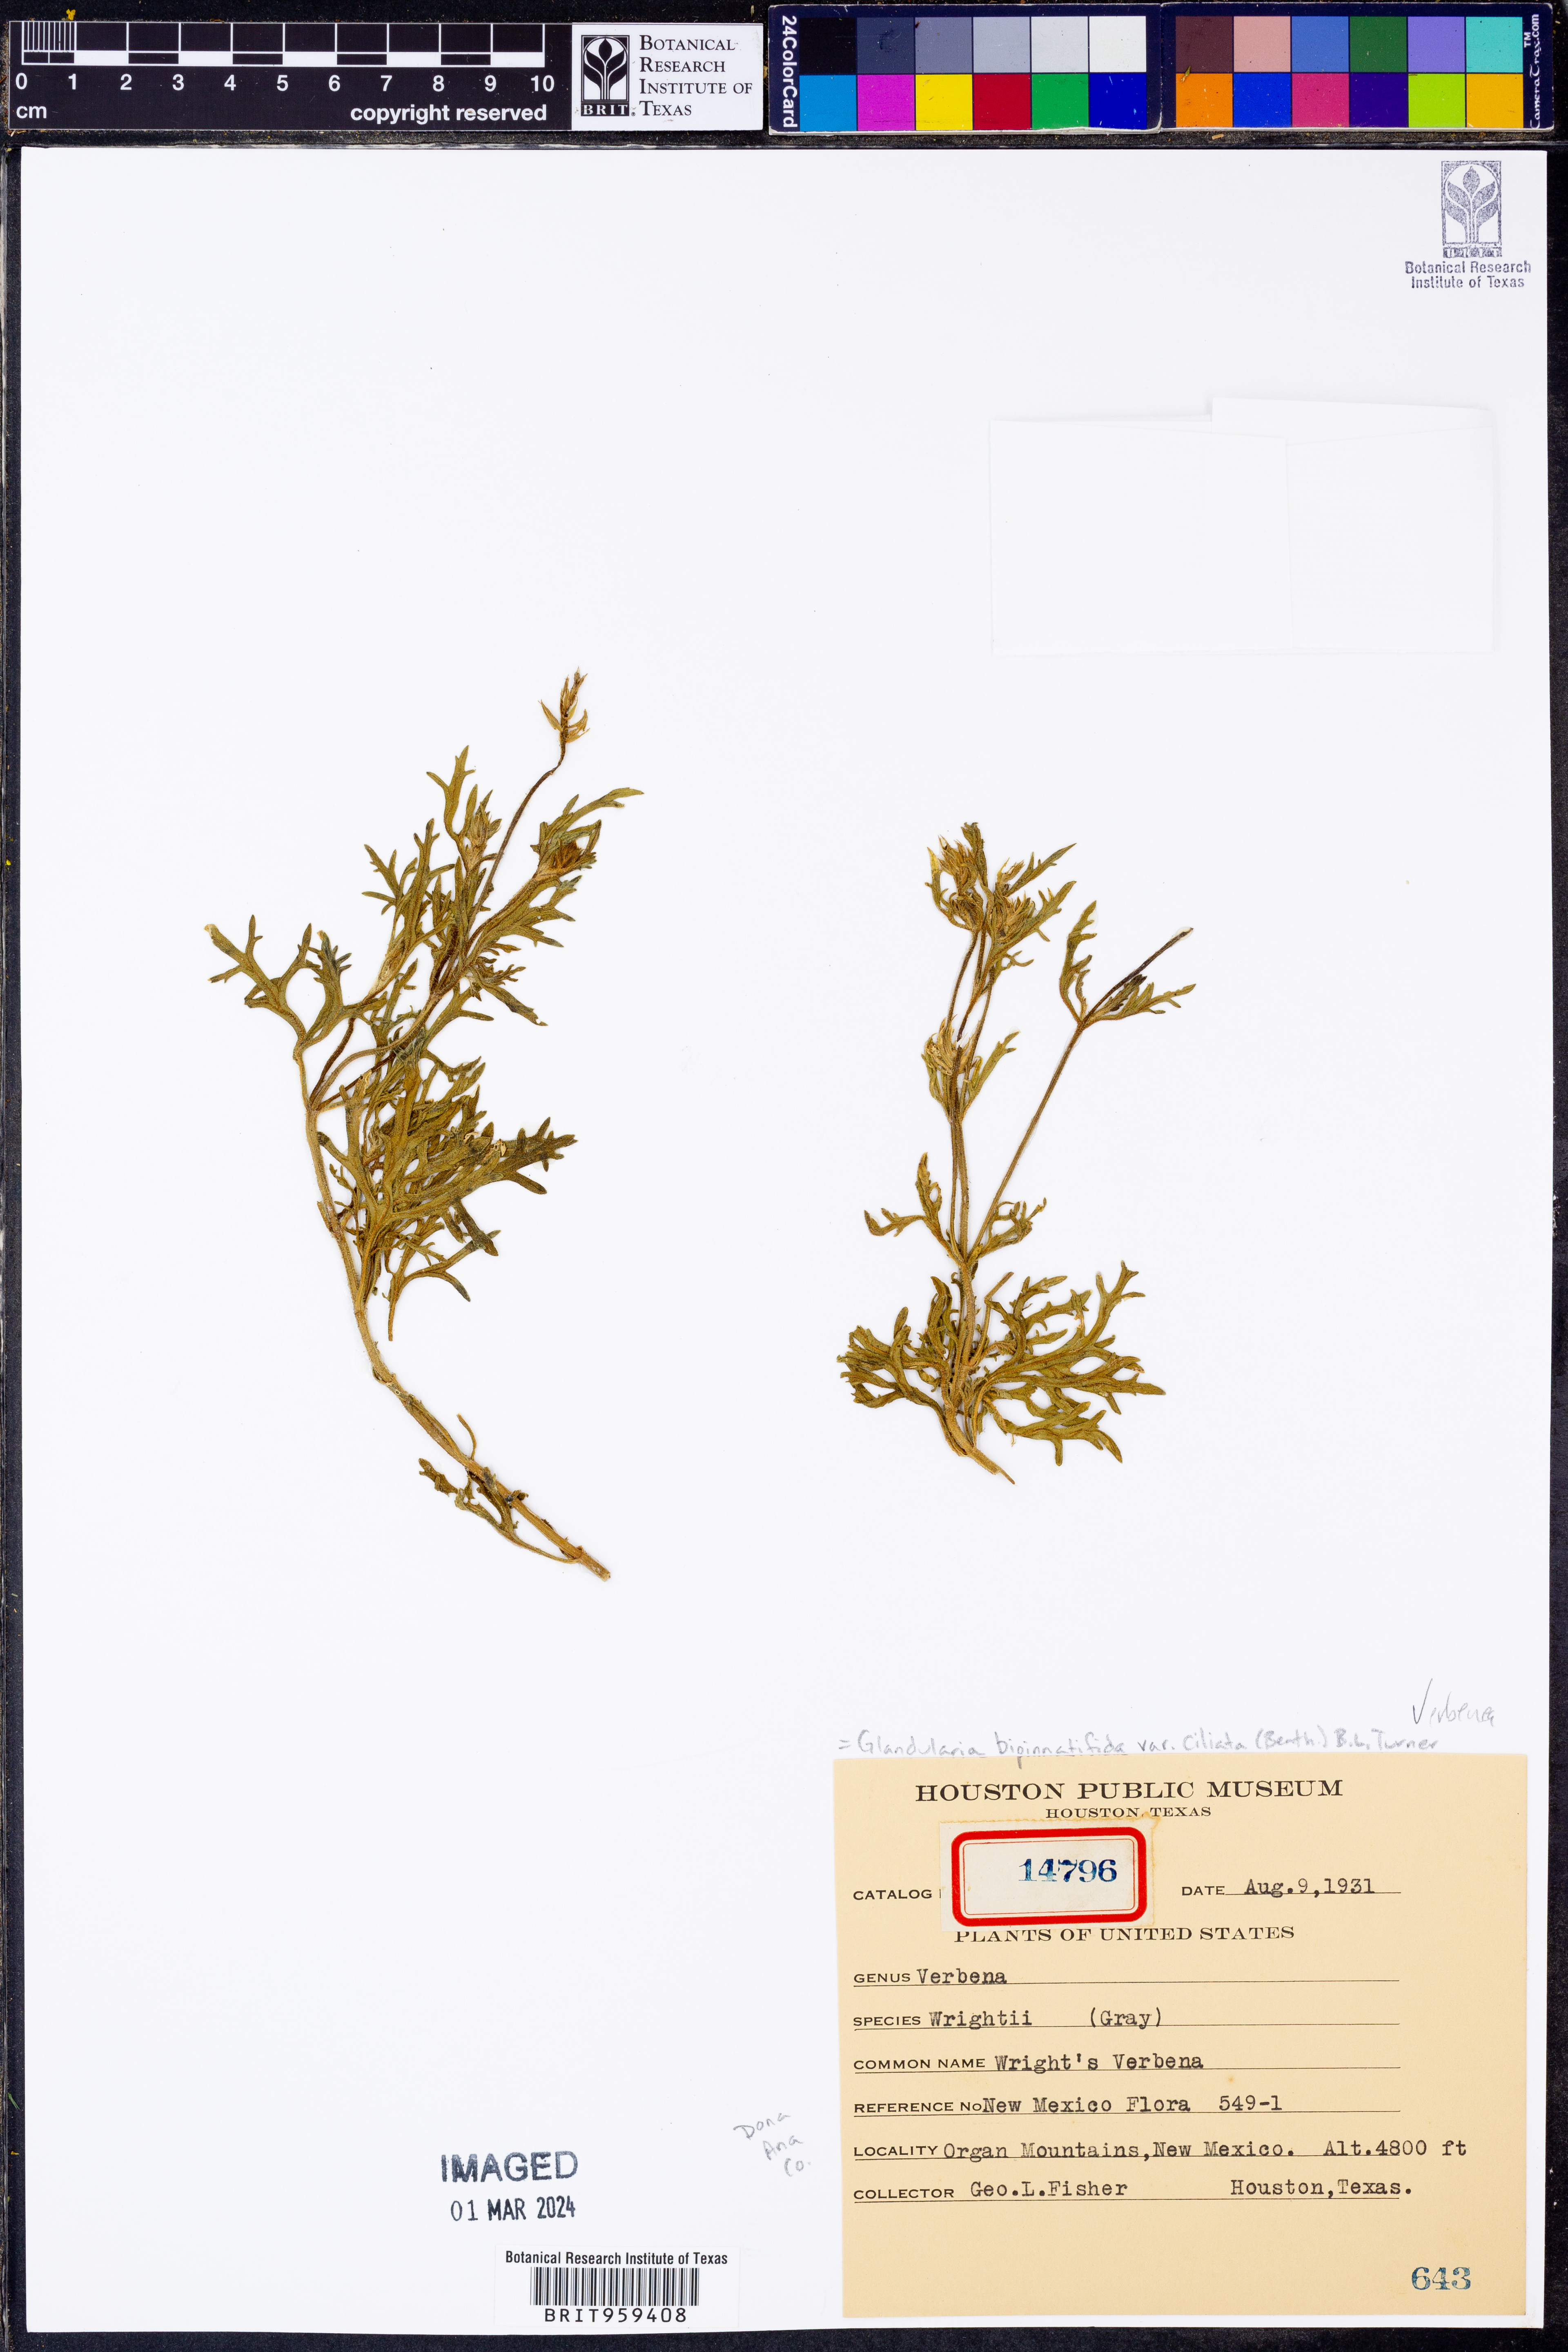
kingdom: Plantae
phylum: Tracheophyta
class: Magnoliopsida
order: Lamiales
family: Verbenaceae
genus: Verbena
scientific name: Verbena bipinnatifida
